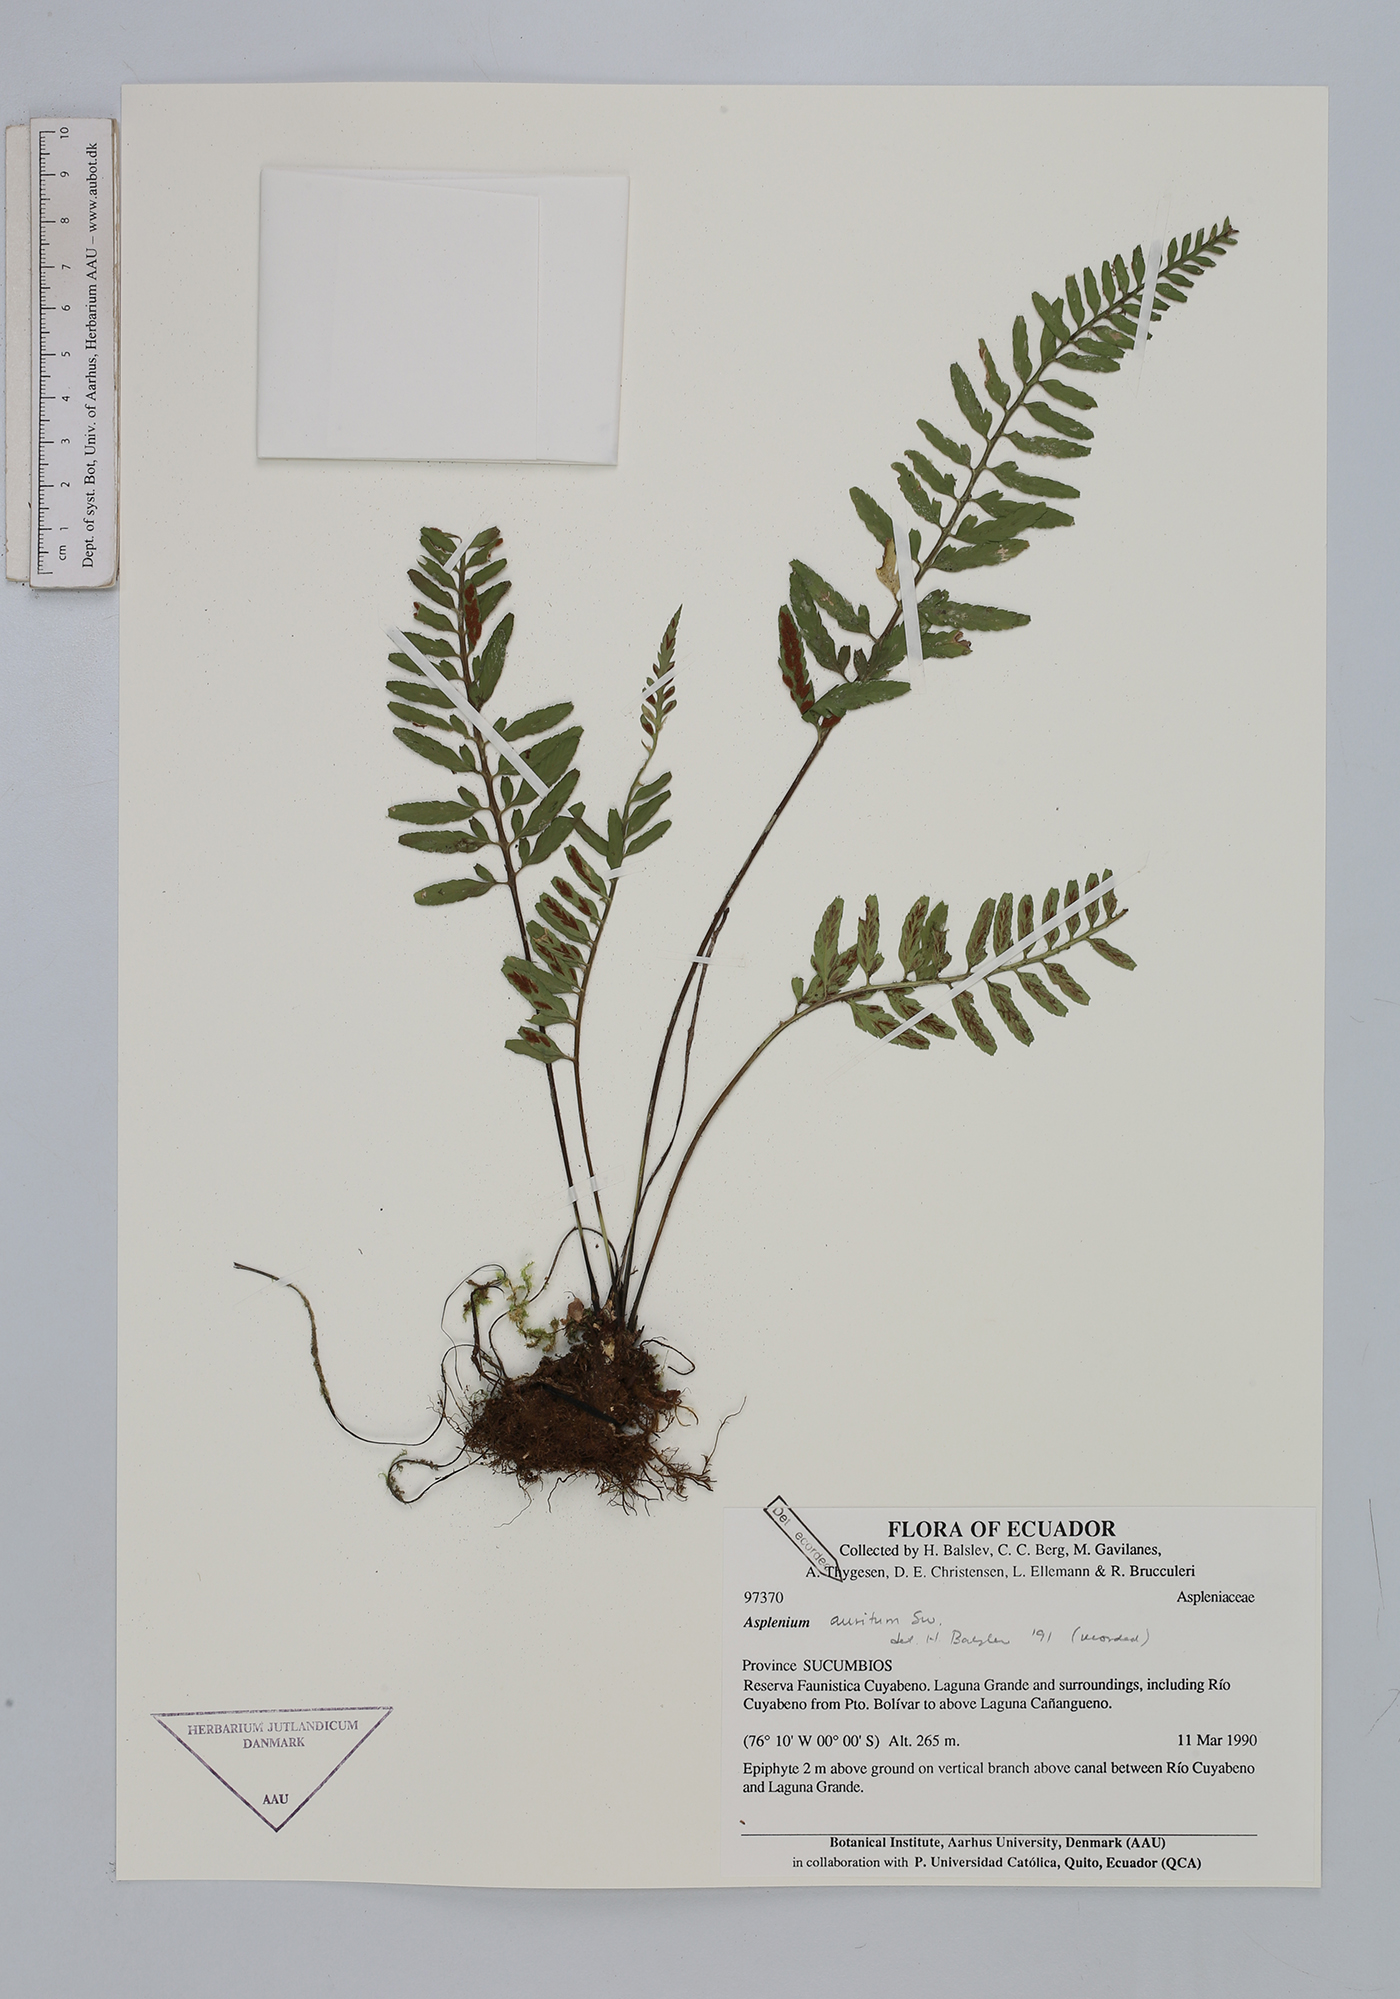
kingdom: Plantae
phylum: Tracheophyta
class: Polypodiopsida
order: Polypodiales
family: Aspleniaceae
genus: Asplenium
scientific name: Asplenium auritum
